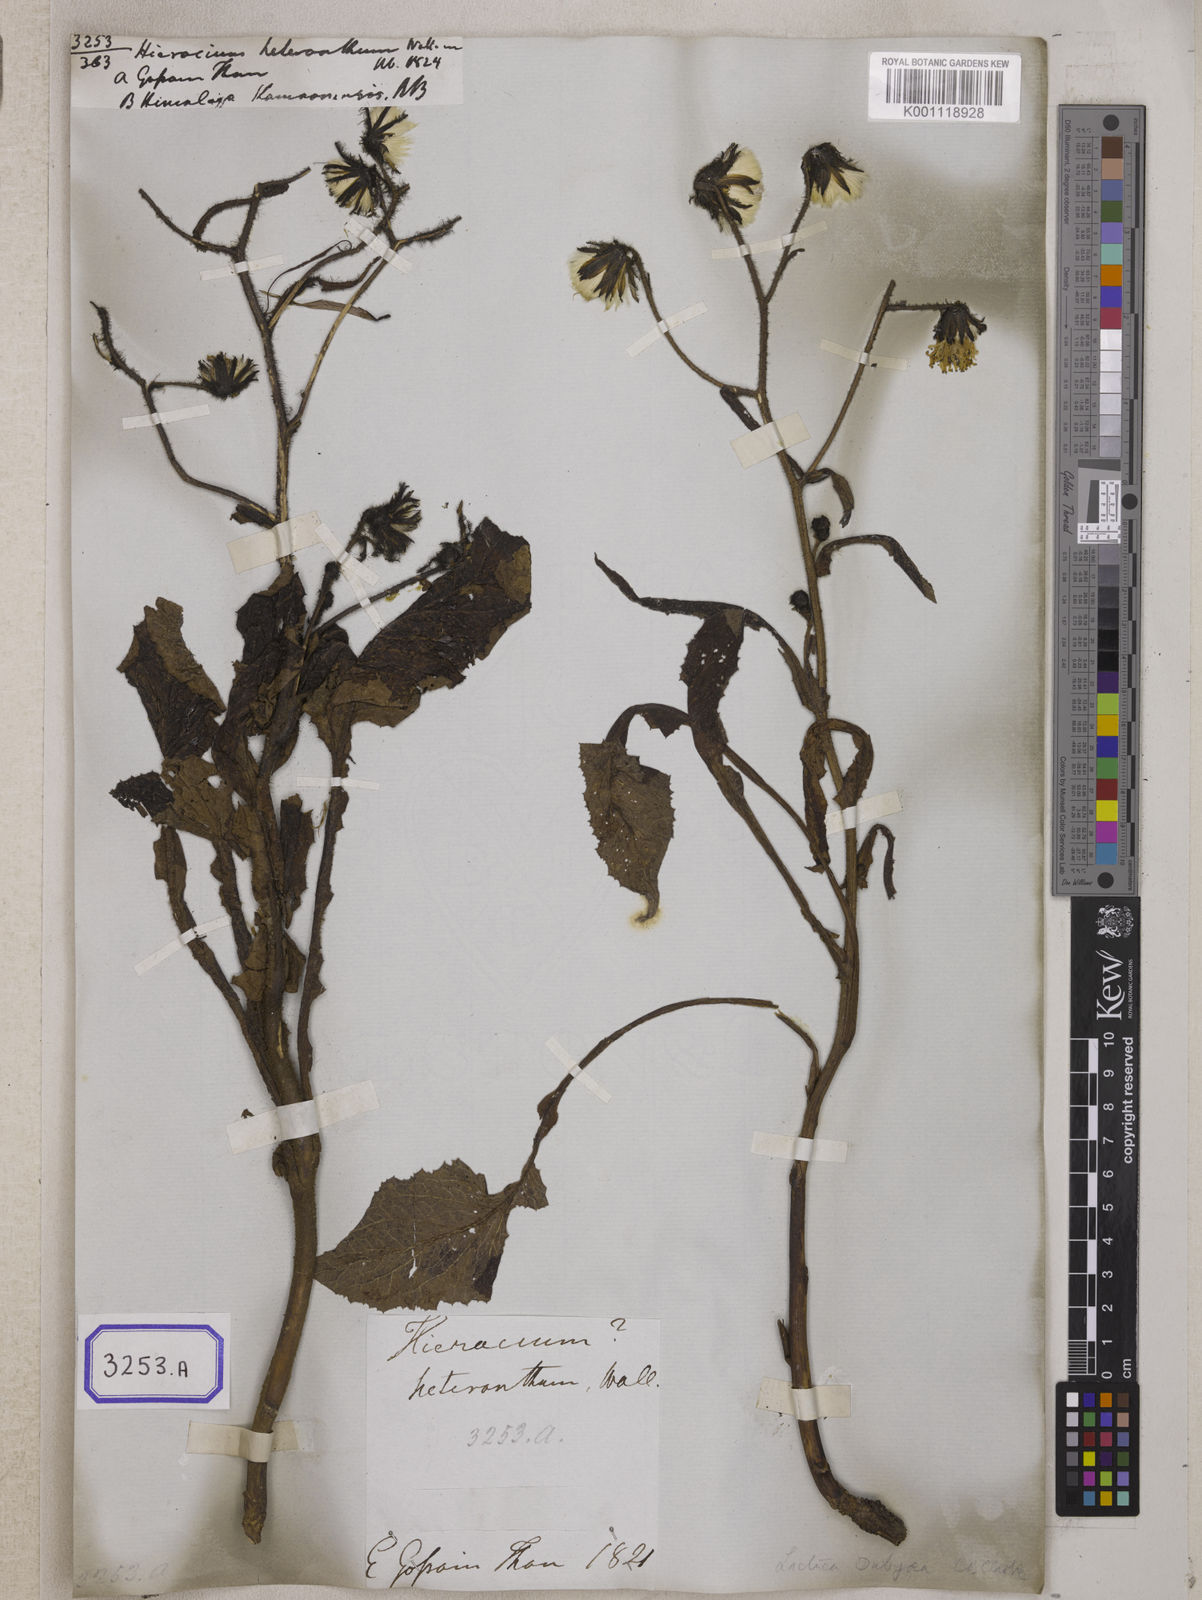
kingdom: Plantae
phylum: Tracheophyta
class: Magnoliopsida
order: Asterales
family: Asteraceae
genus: Dubyaea
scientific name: Dubyaea hispida
